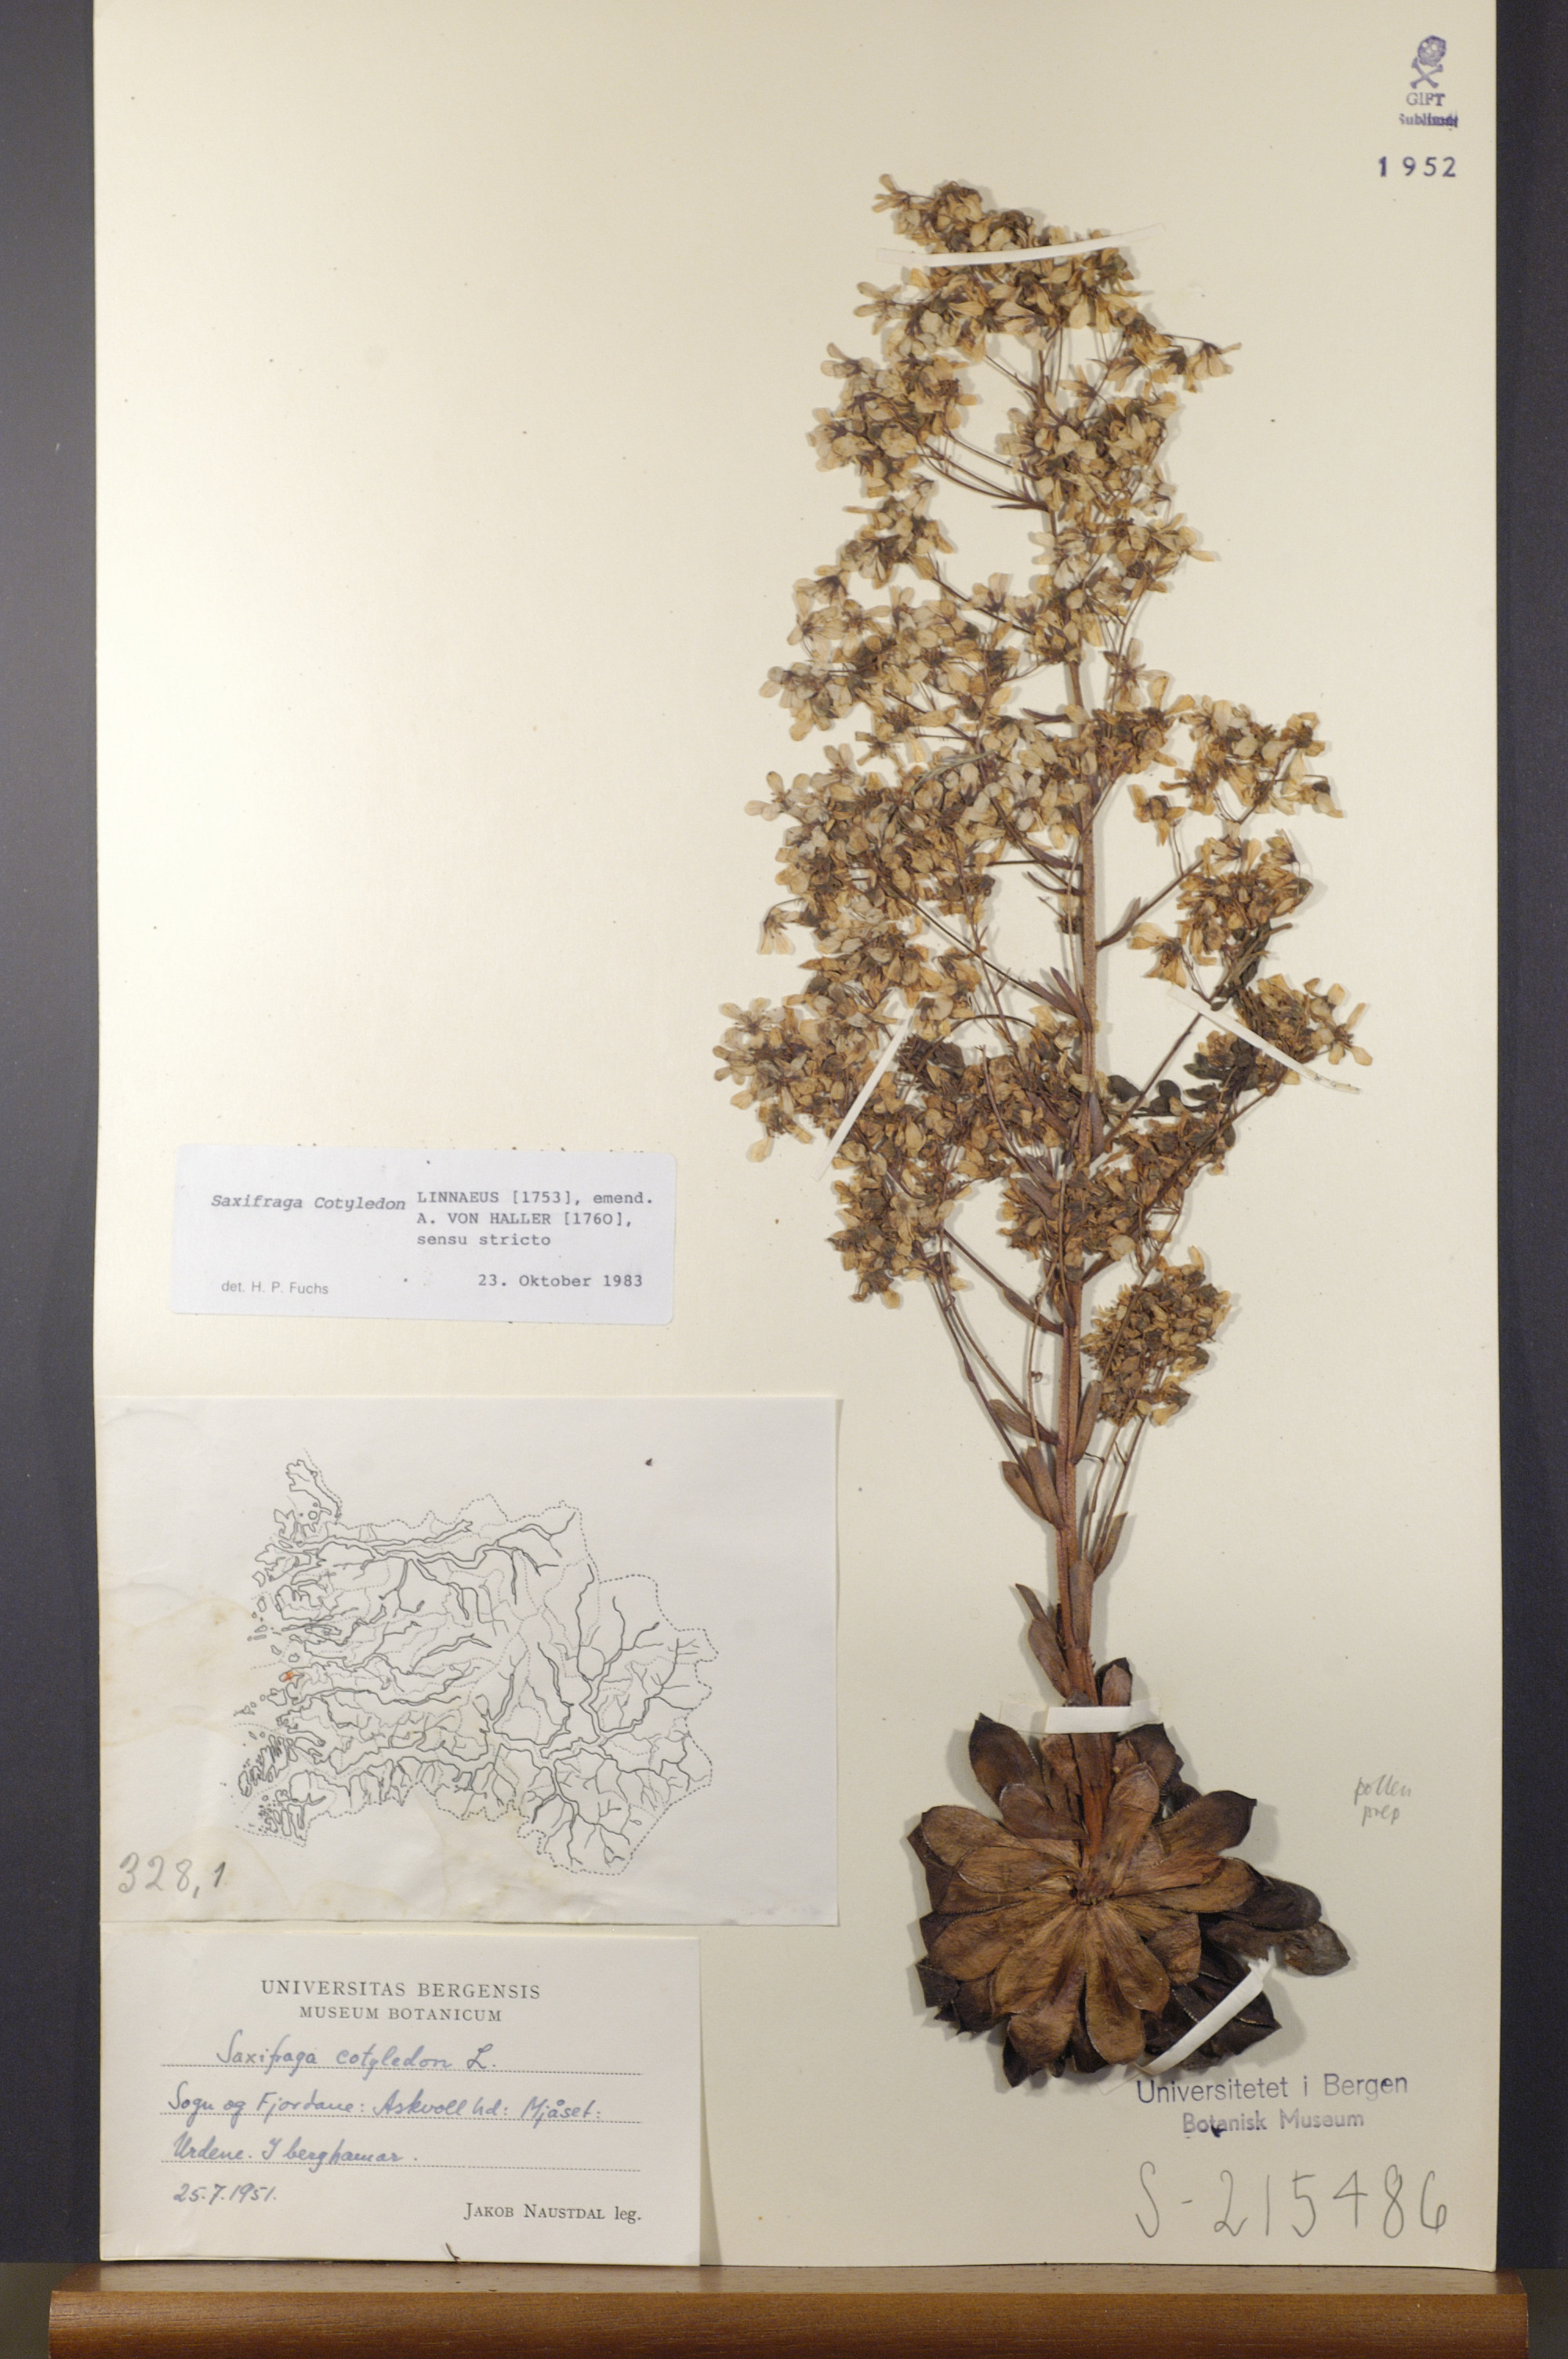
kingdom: Plantae
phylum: Tracheophyta
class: Magnoliopsida
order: Saxifragales
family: Saxifragaceae
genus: Saxifraga
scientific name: Saxifraga cotyledon
